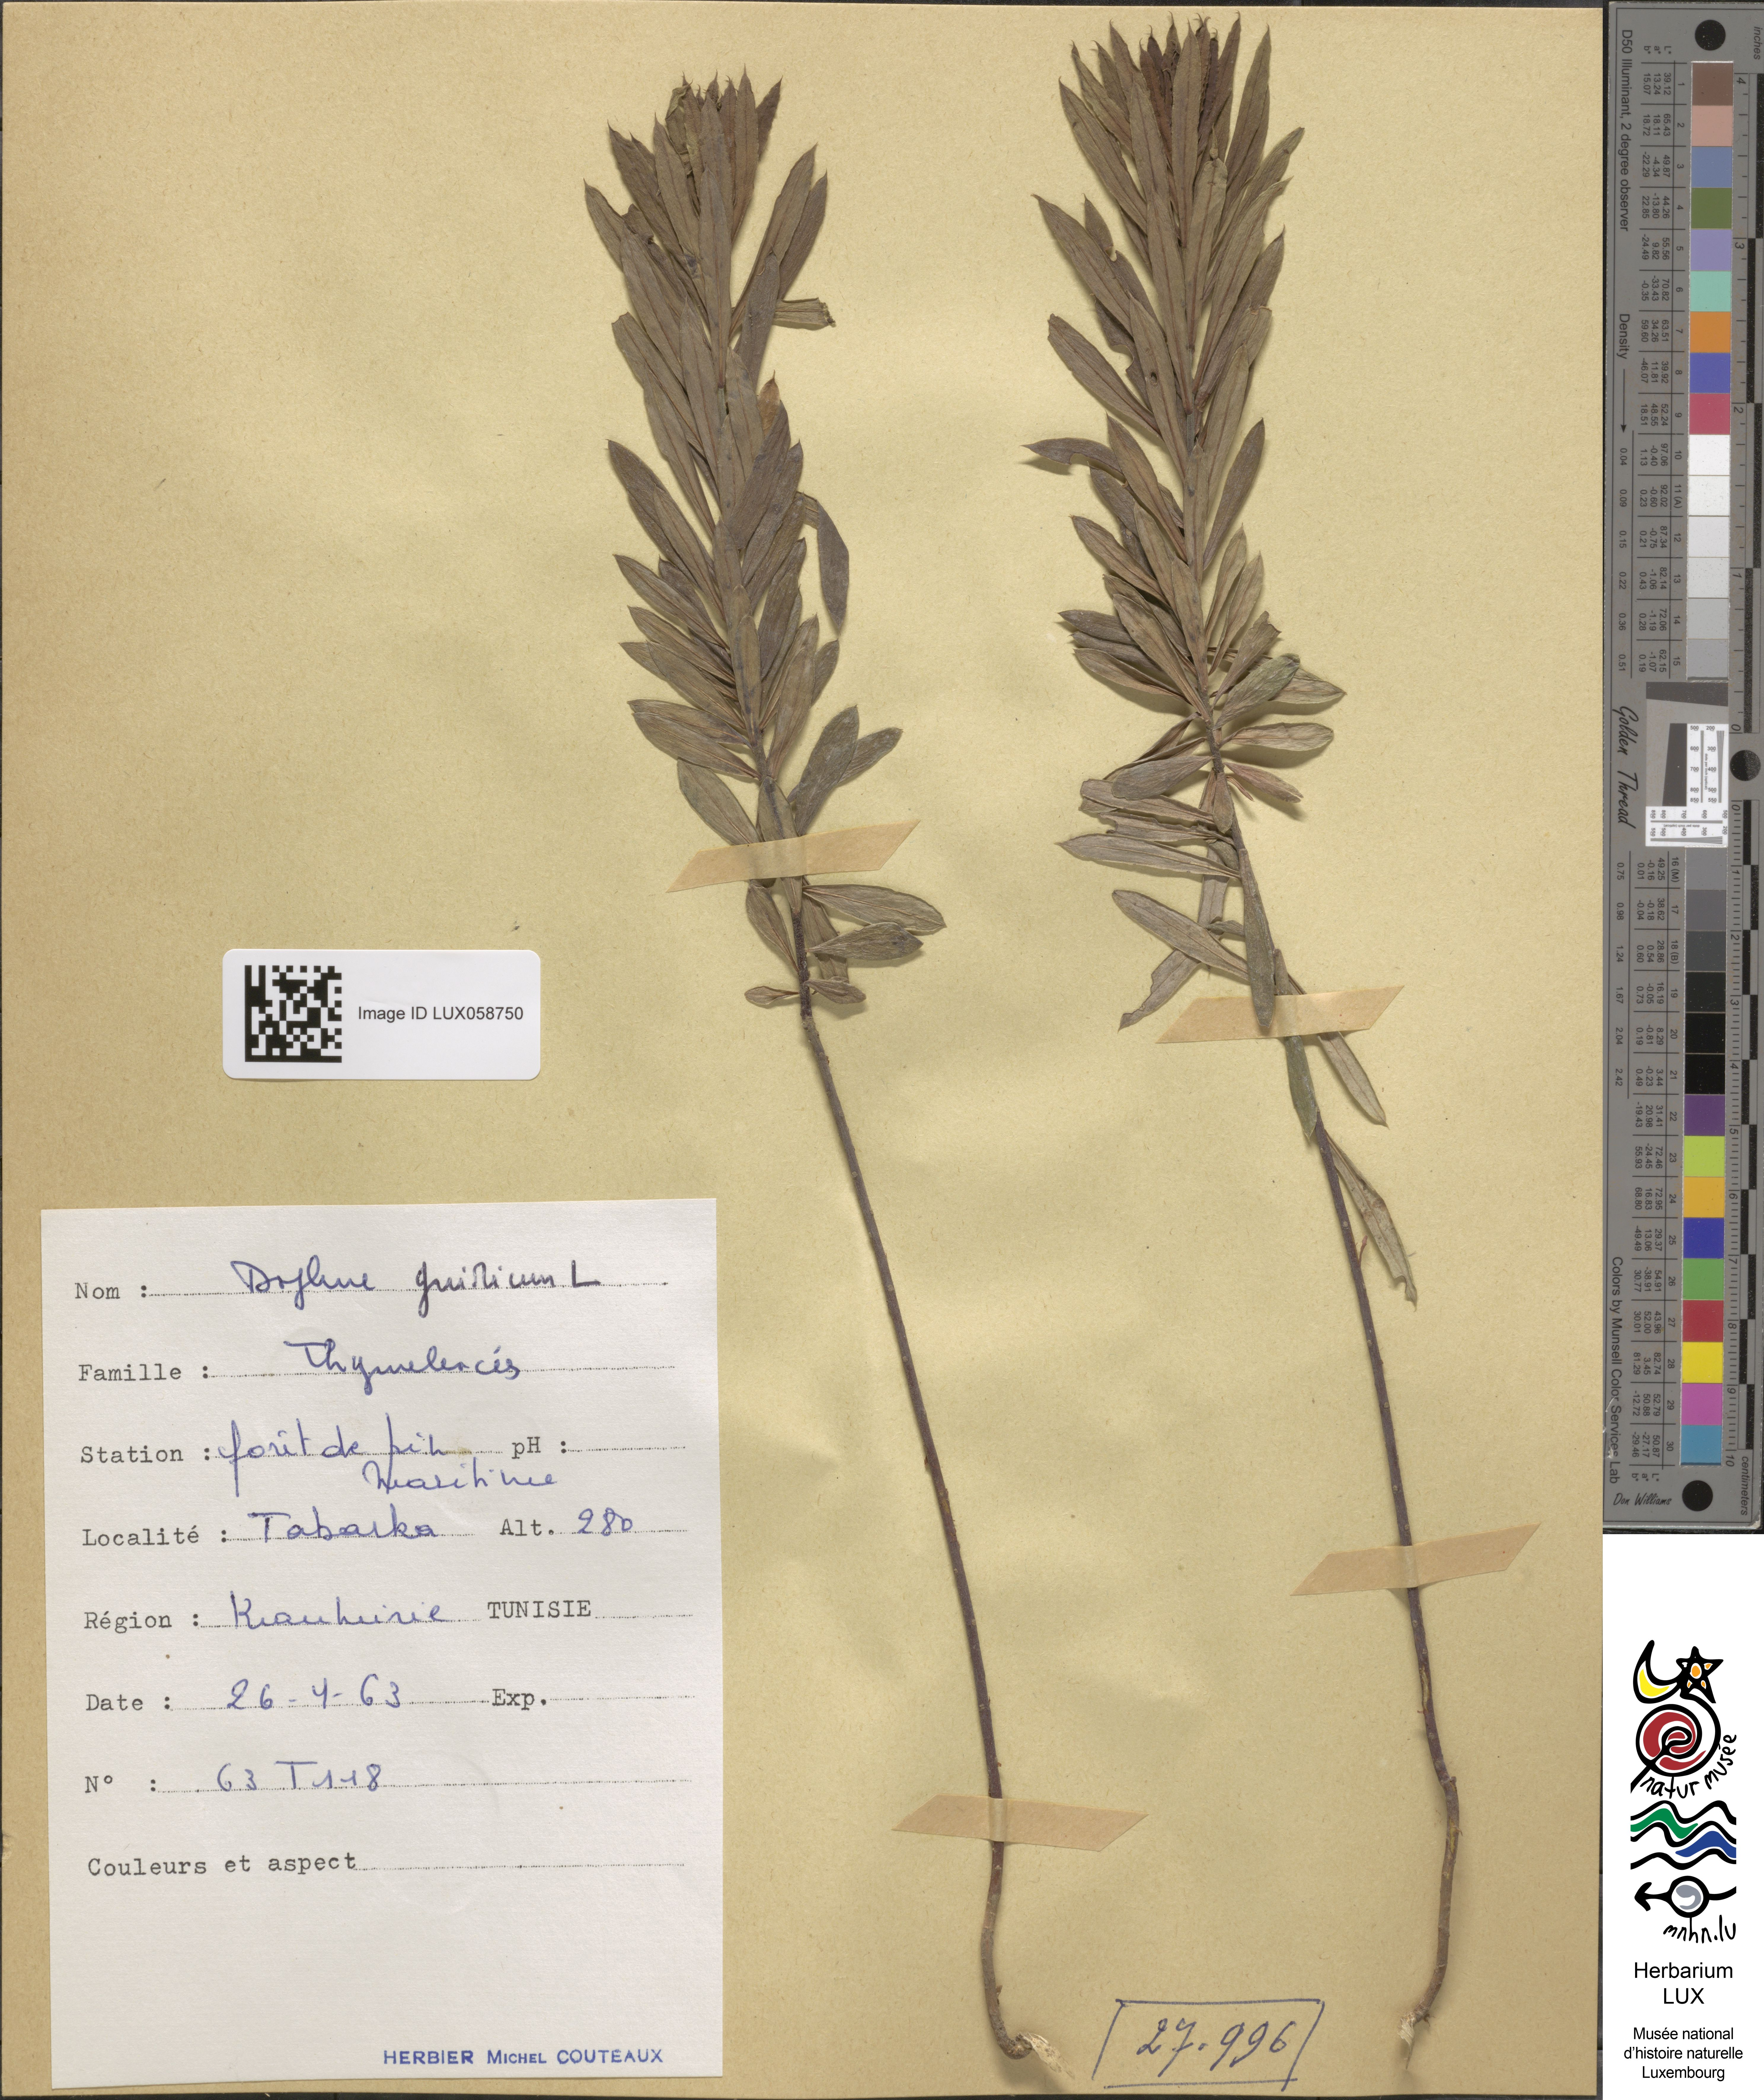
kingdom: Plantae
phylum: Tracheophyta
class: Magnoliopsida
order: Malvales
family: Thymelaeaceae
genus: Daphne
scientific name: Daphne gnidium
